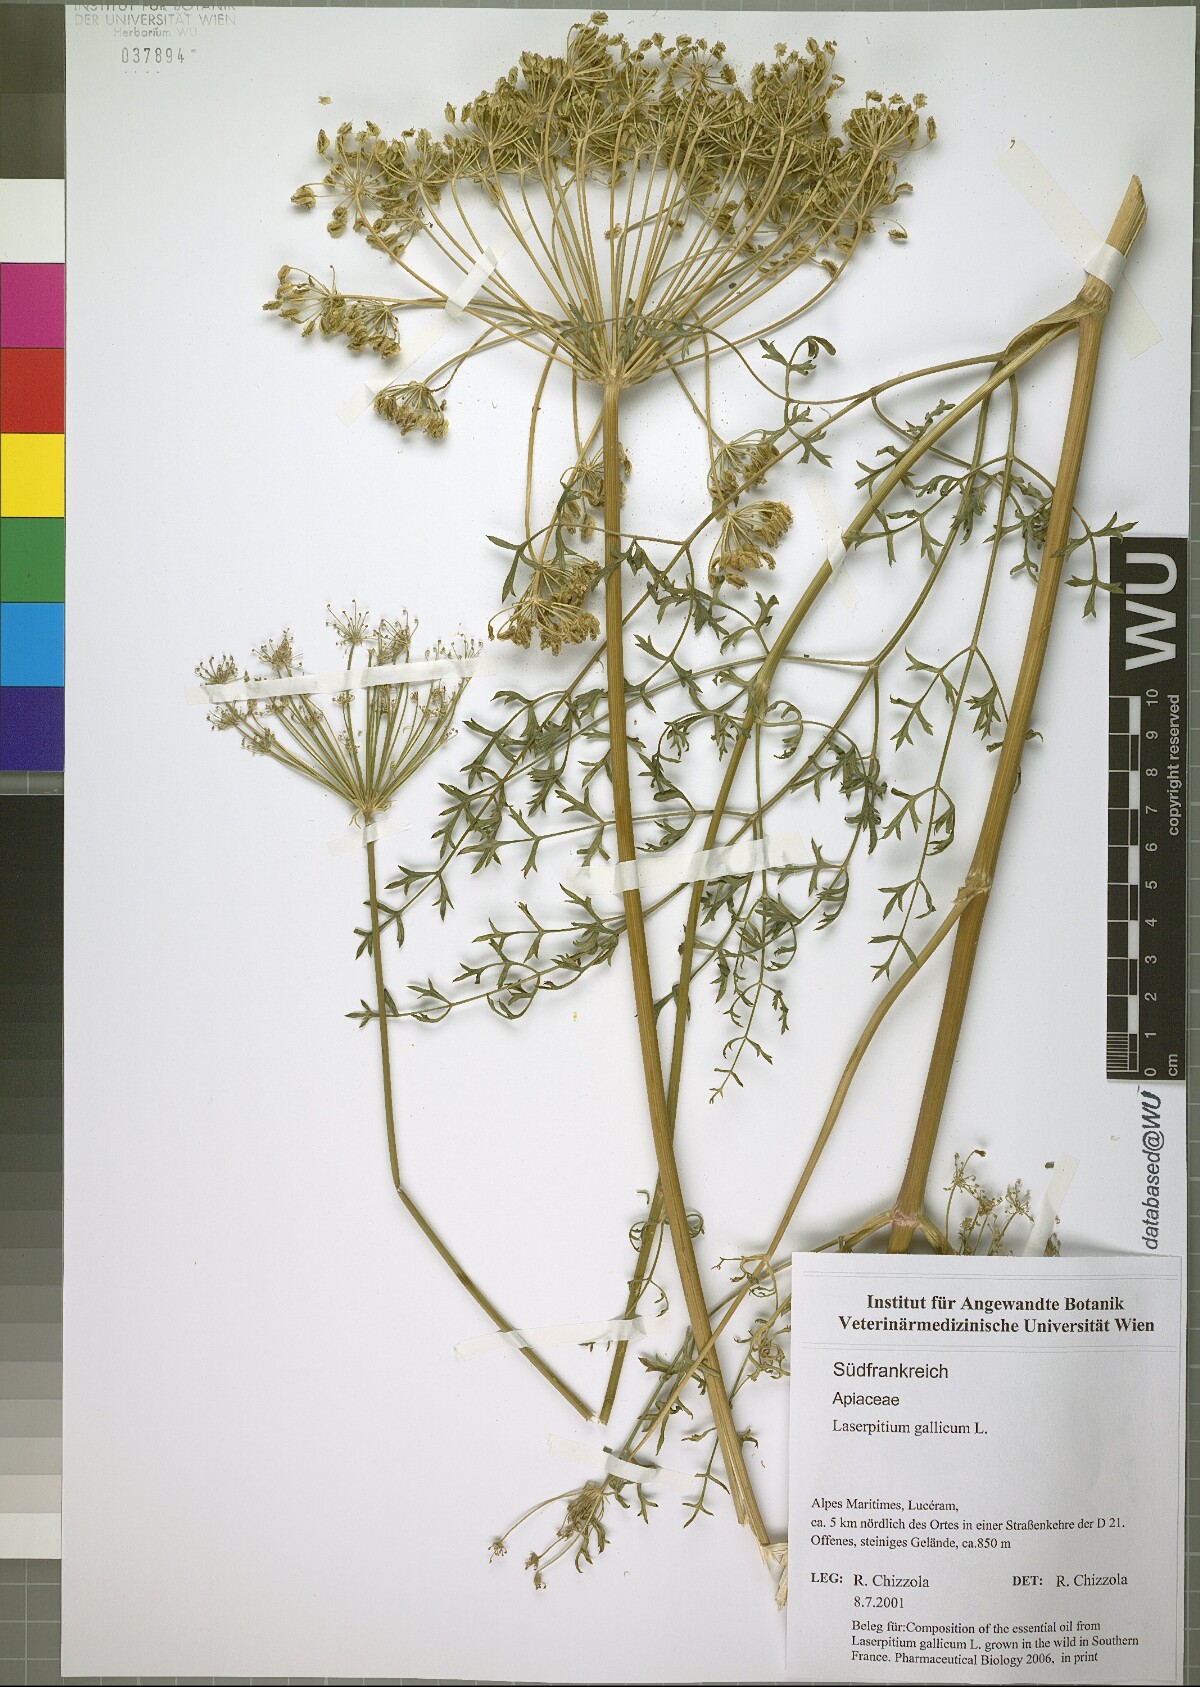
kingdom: Plantae
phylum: Tracheophyta
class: Magnoliopsida
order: Apiales
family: Apiaceae
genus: Laserpitium
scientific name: Laserpitium gallicum
